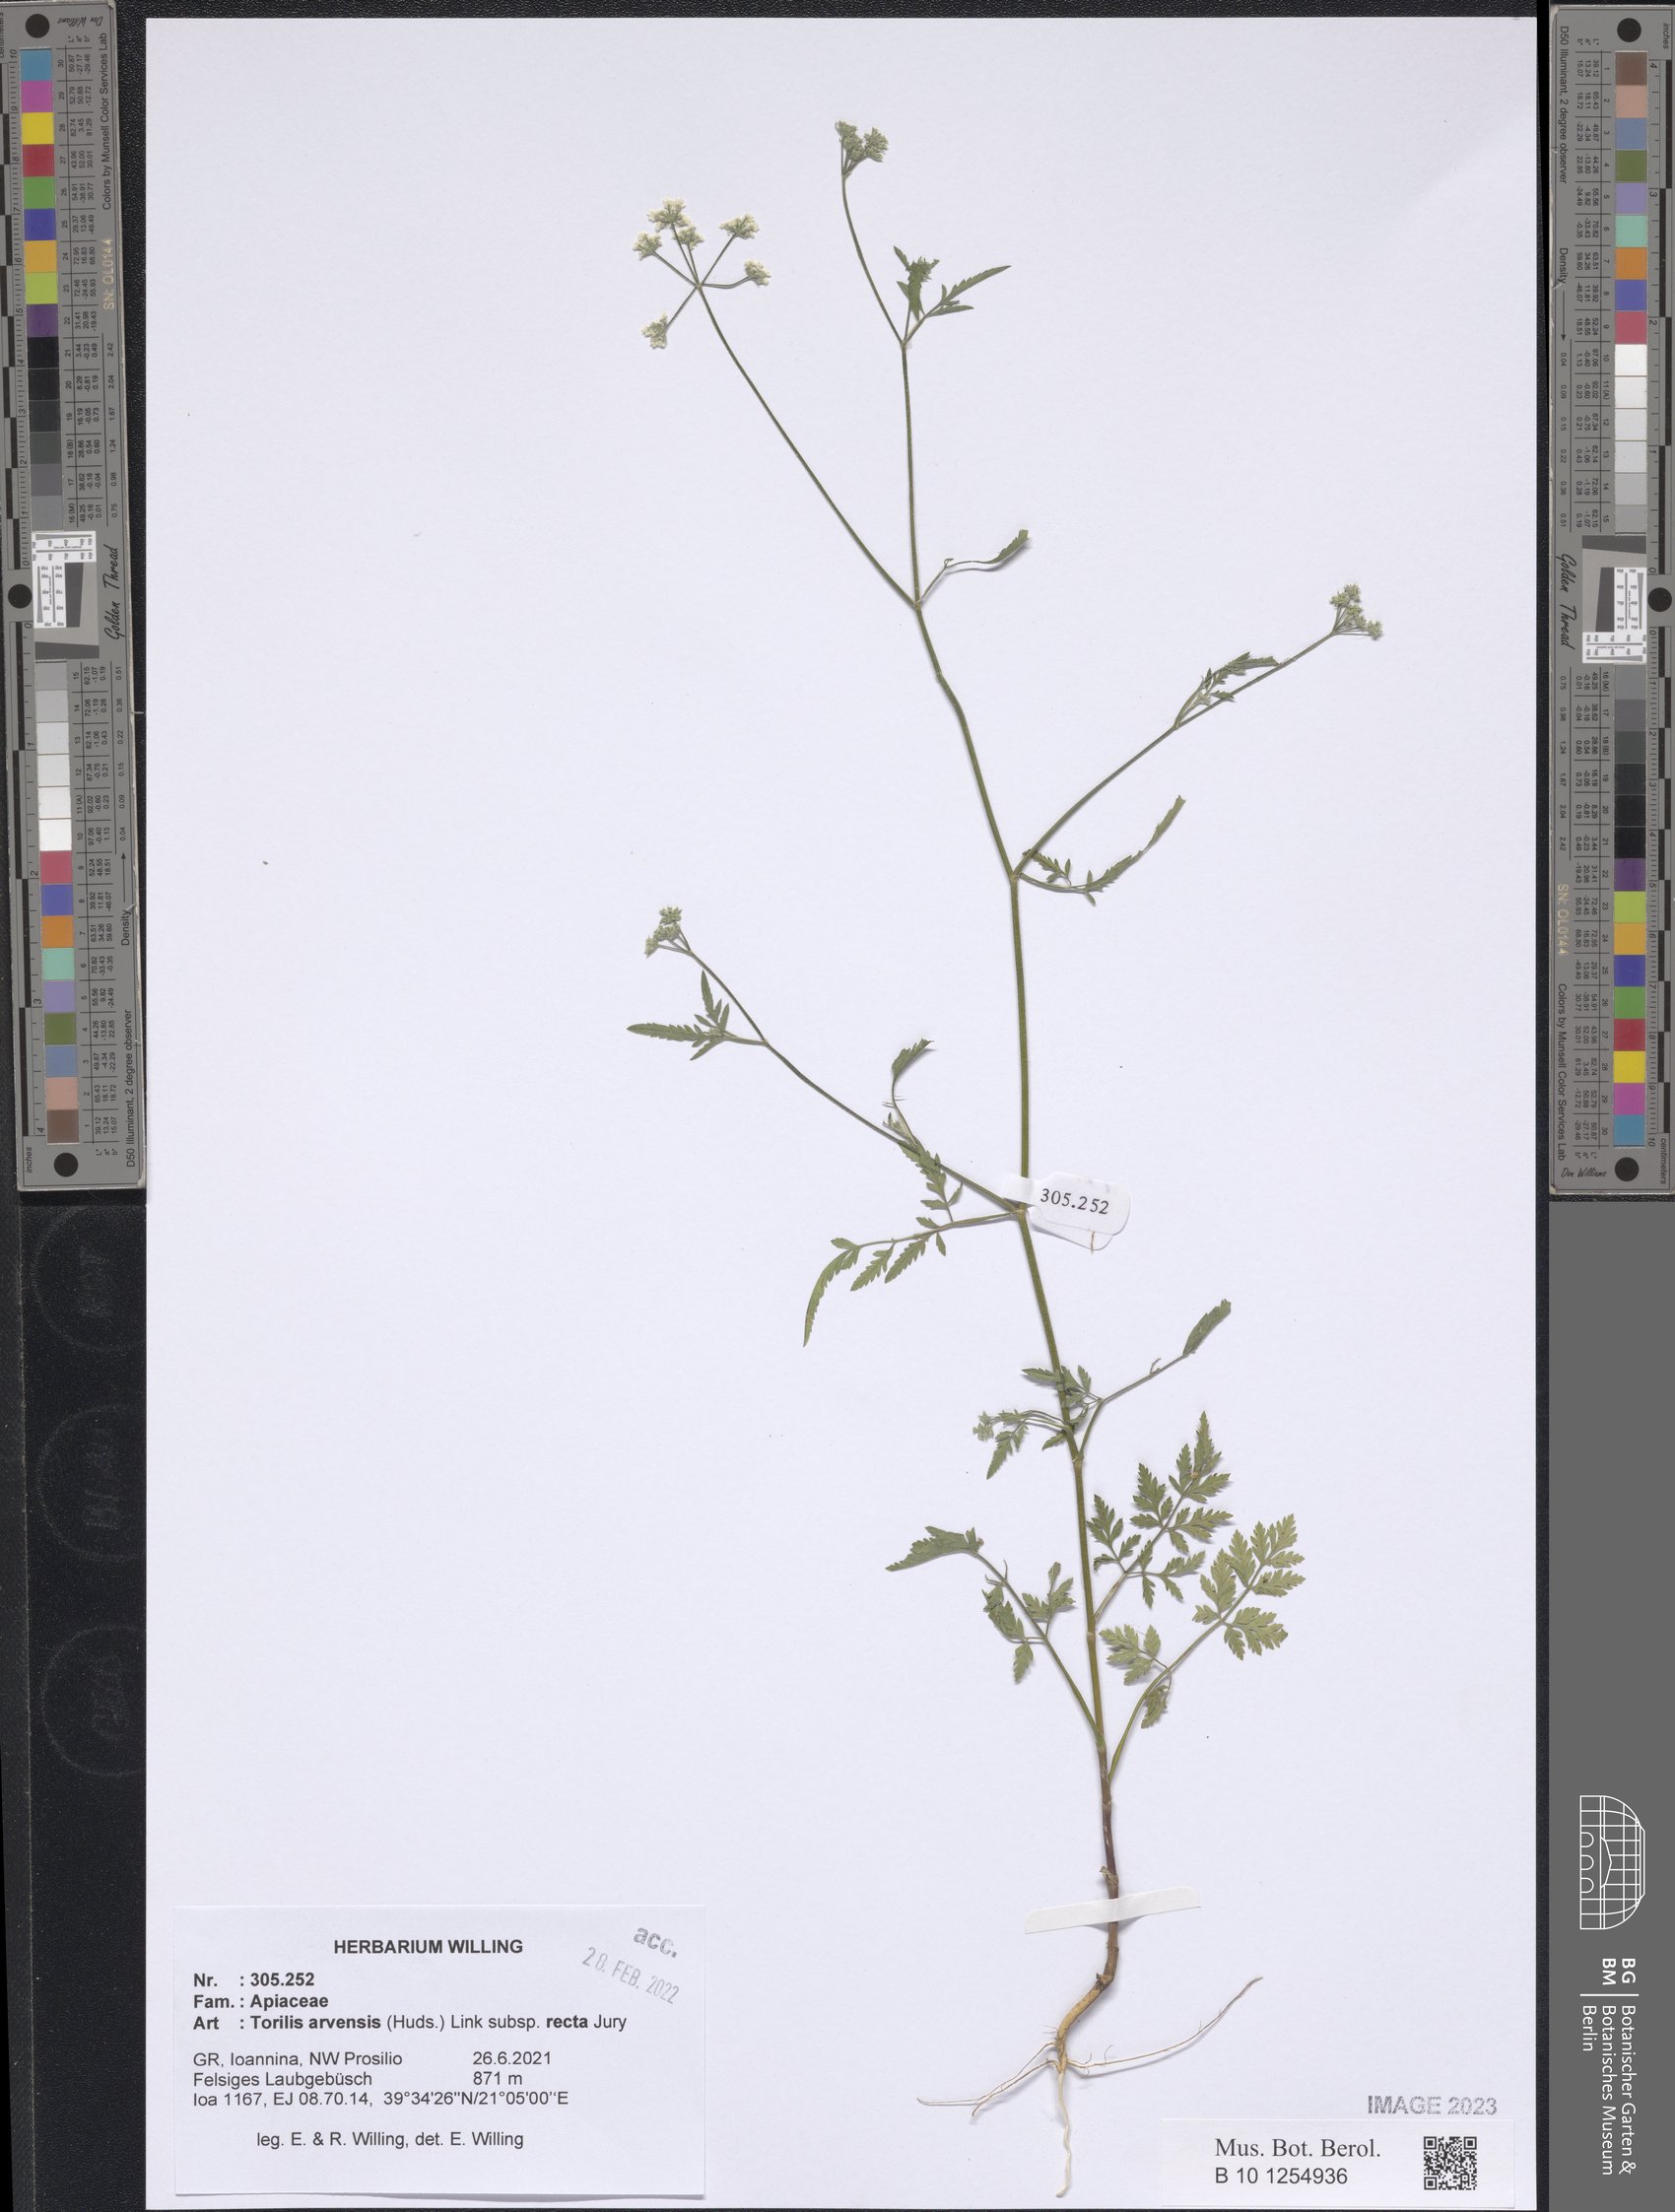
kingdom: Plantae
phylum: Tracheophyta
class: Magnoliopsida
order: Apiales
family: Apiaceae
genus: Torilis
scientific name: Torilis arvensis
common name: Spreading hedge-parsley
